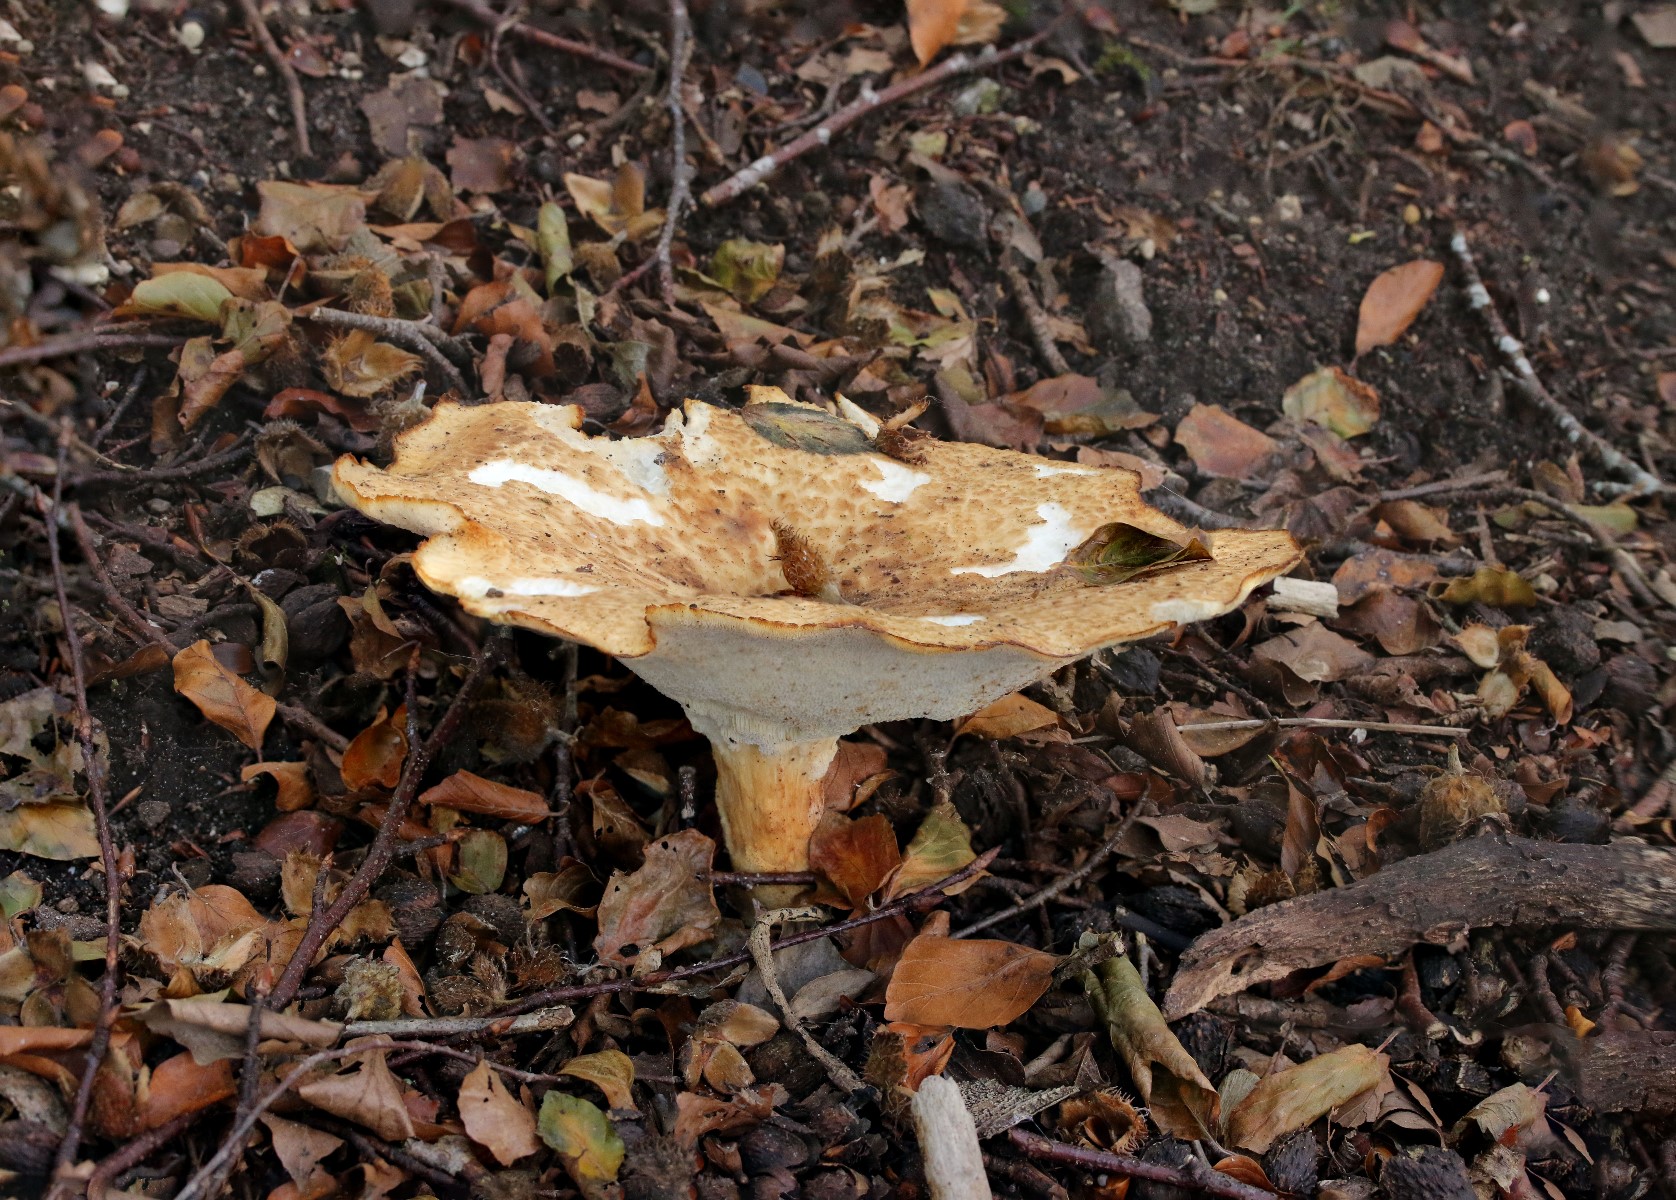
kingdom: Fungi
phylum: Basidiomycota
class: Agaricomycetes
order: Polyporales
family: Polyporaceae
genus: Polyporus
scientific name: Polyporus tuberaster
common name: knoldet stilkporesvamp
